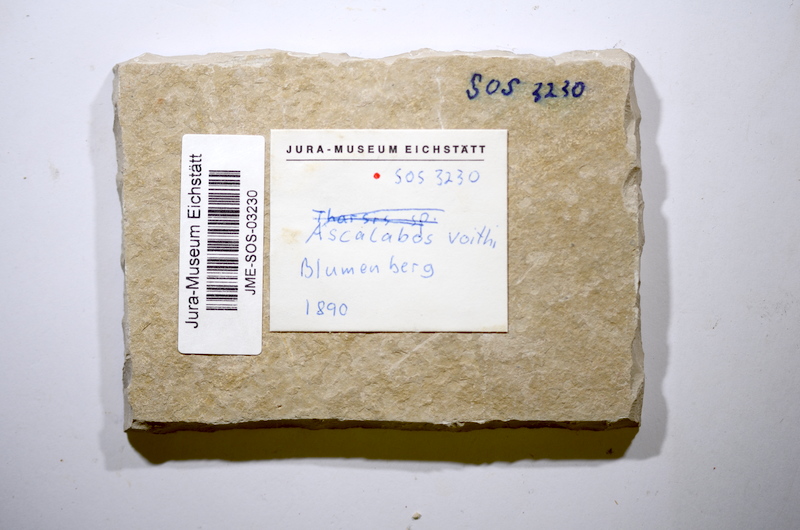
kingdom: Animalia
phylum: Chordata
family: Ascalaboidae
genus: Ascalabos
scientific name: Ascalabos voithii
